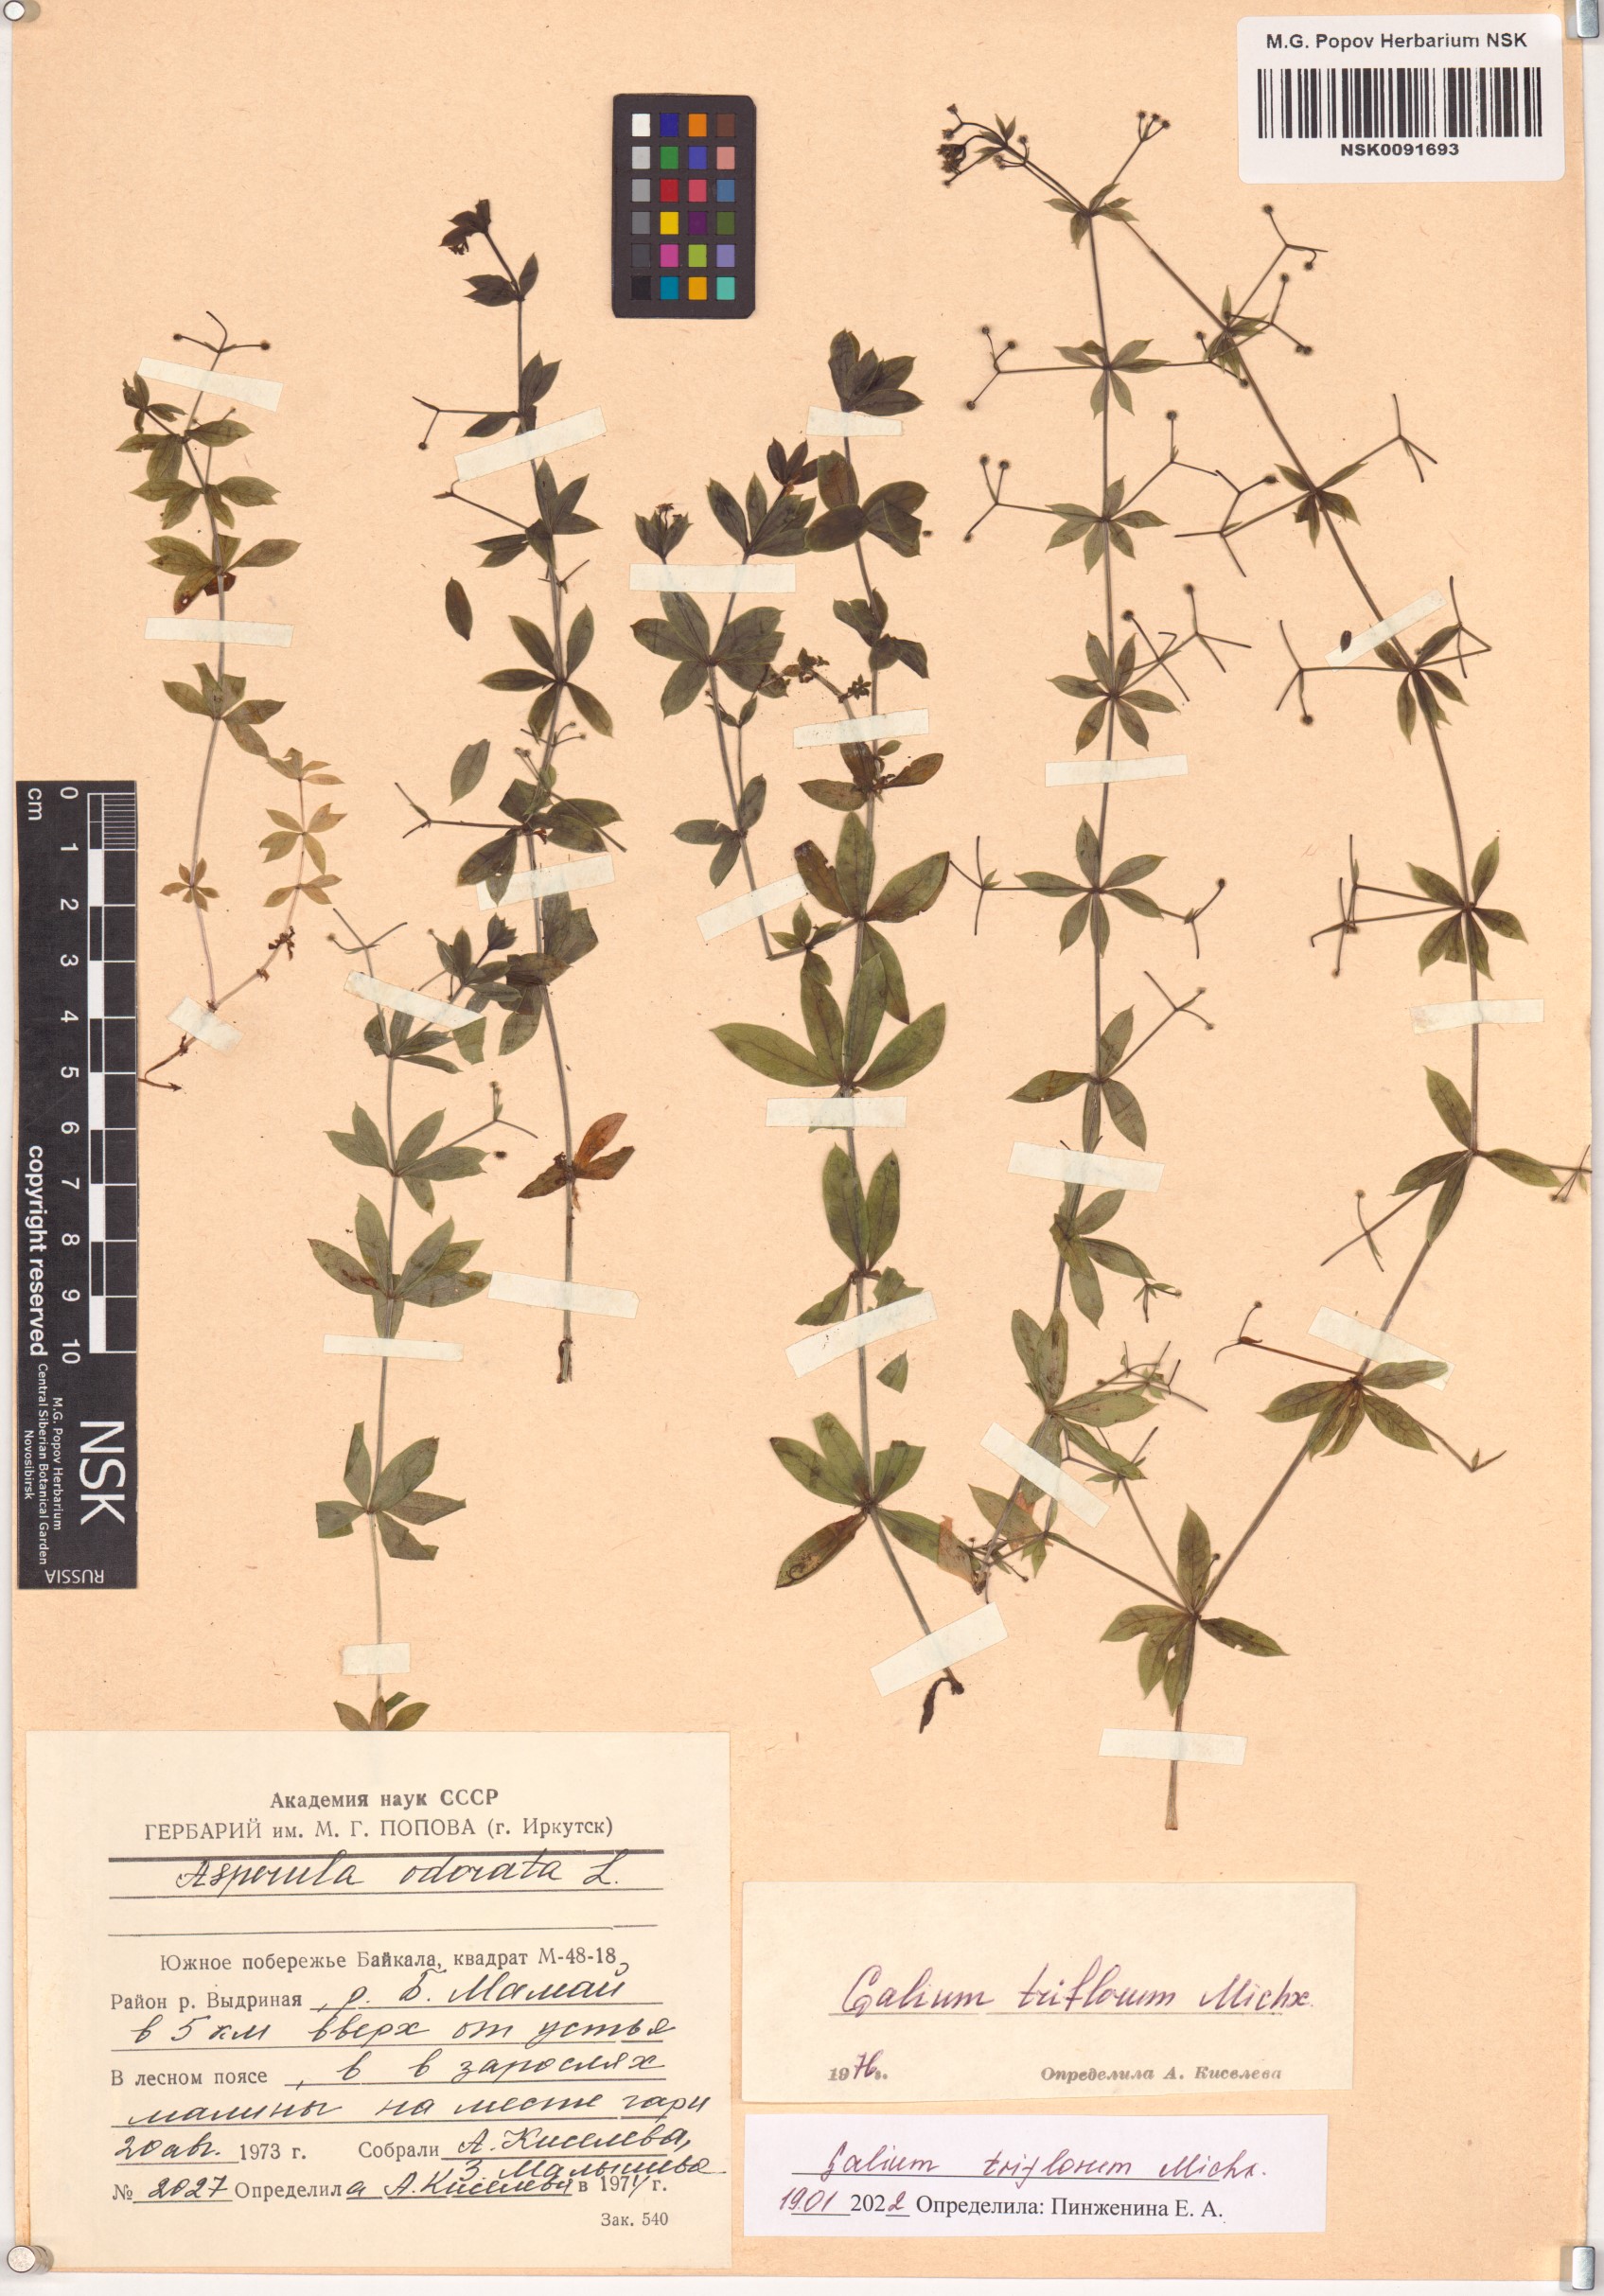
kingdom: Plantae
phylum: Tracheophyta
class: Magnoliopsida
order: Gentianales
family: Rubiaceae
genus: Galium
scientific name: Galium triflorum
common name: Fragrant bedstraw
